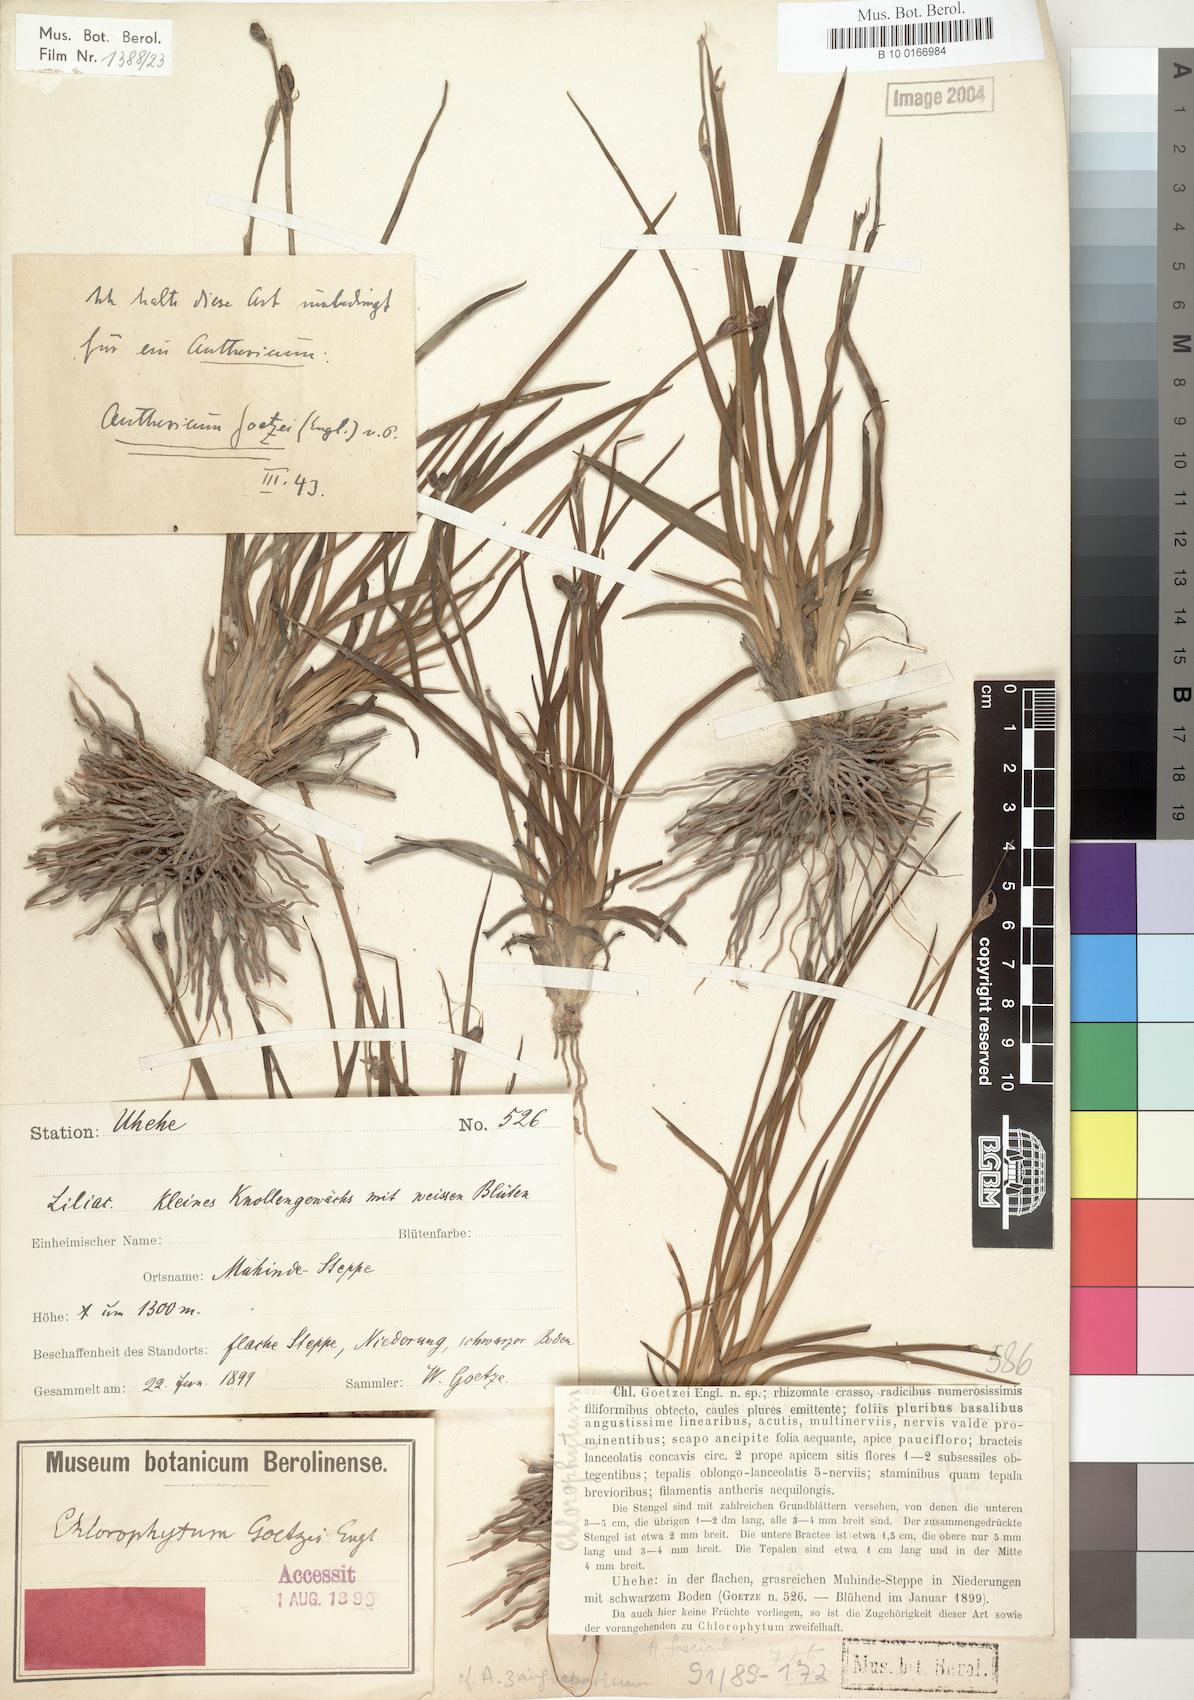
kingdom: Plantae
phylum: Tracheophyta
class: Liliopsida
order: Asparagales
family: Asparagaceae
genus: Chlorophytum
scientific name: Chlorophytum goetzei
